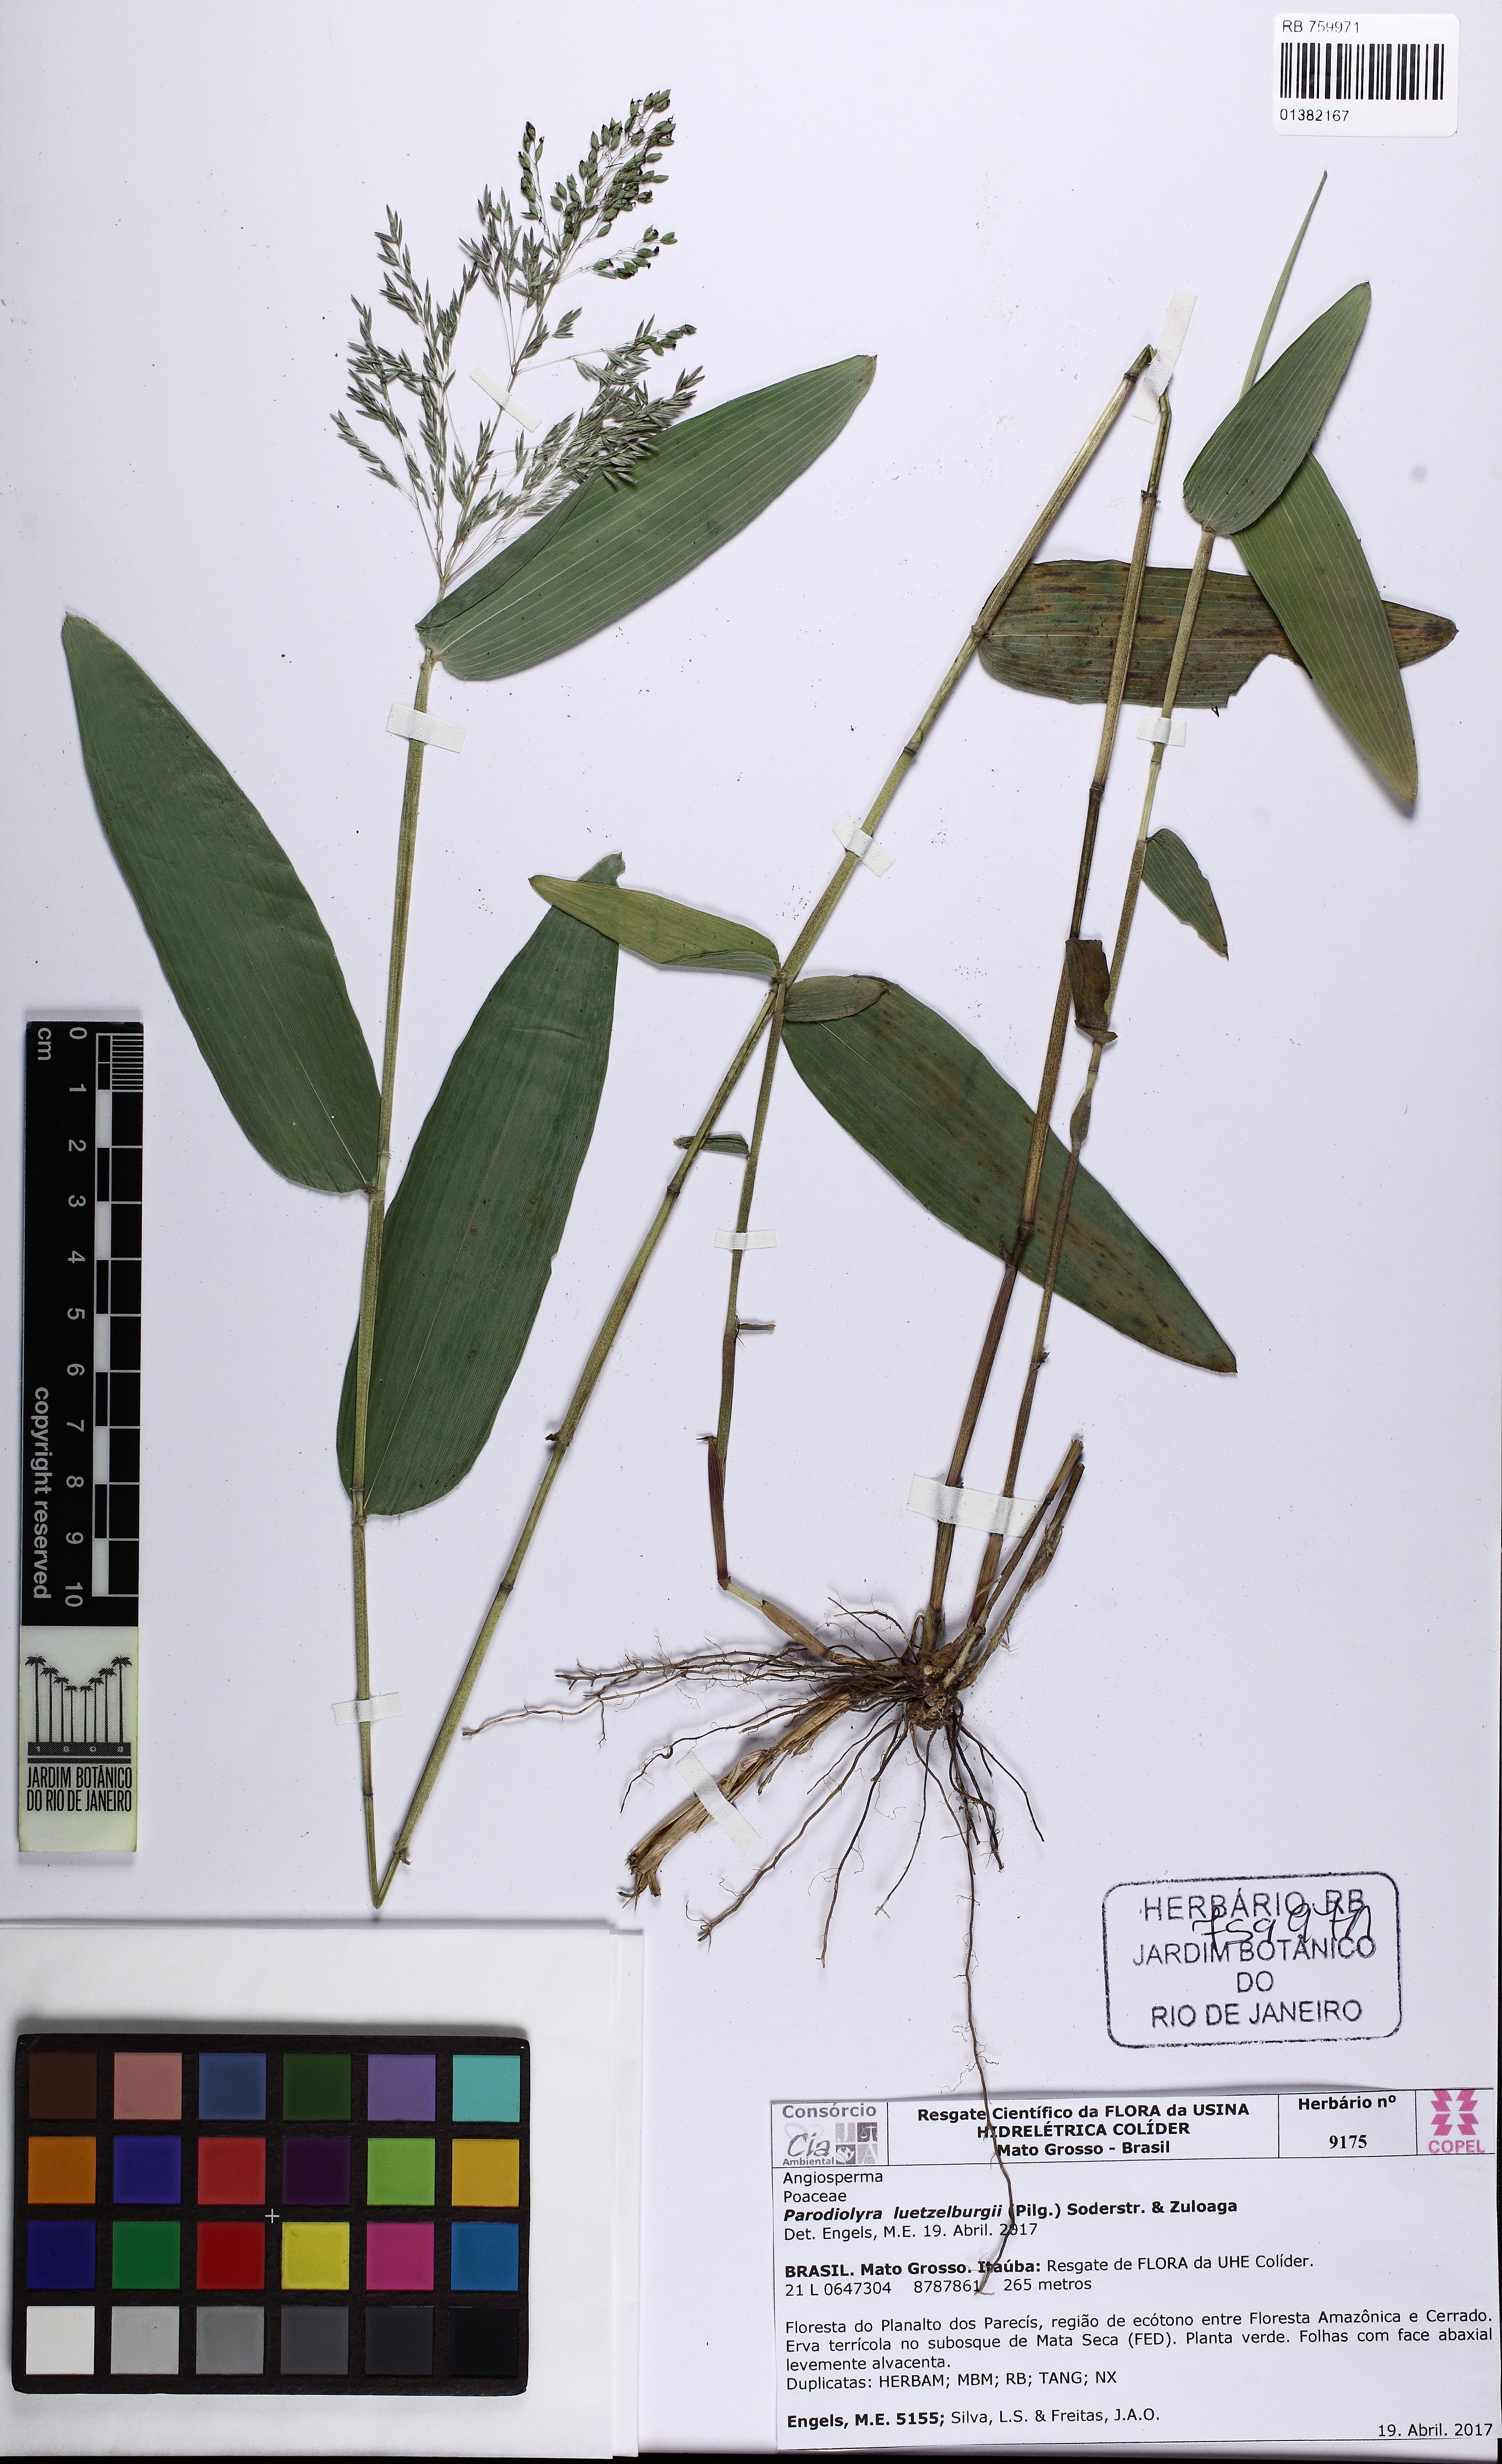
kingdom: Plantae
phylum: Tracheophyta
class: Liliopsida
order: Poales
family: Poaceae
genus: Parodiolyra
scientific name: Parodiolyra luetzelburgii
